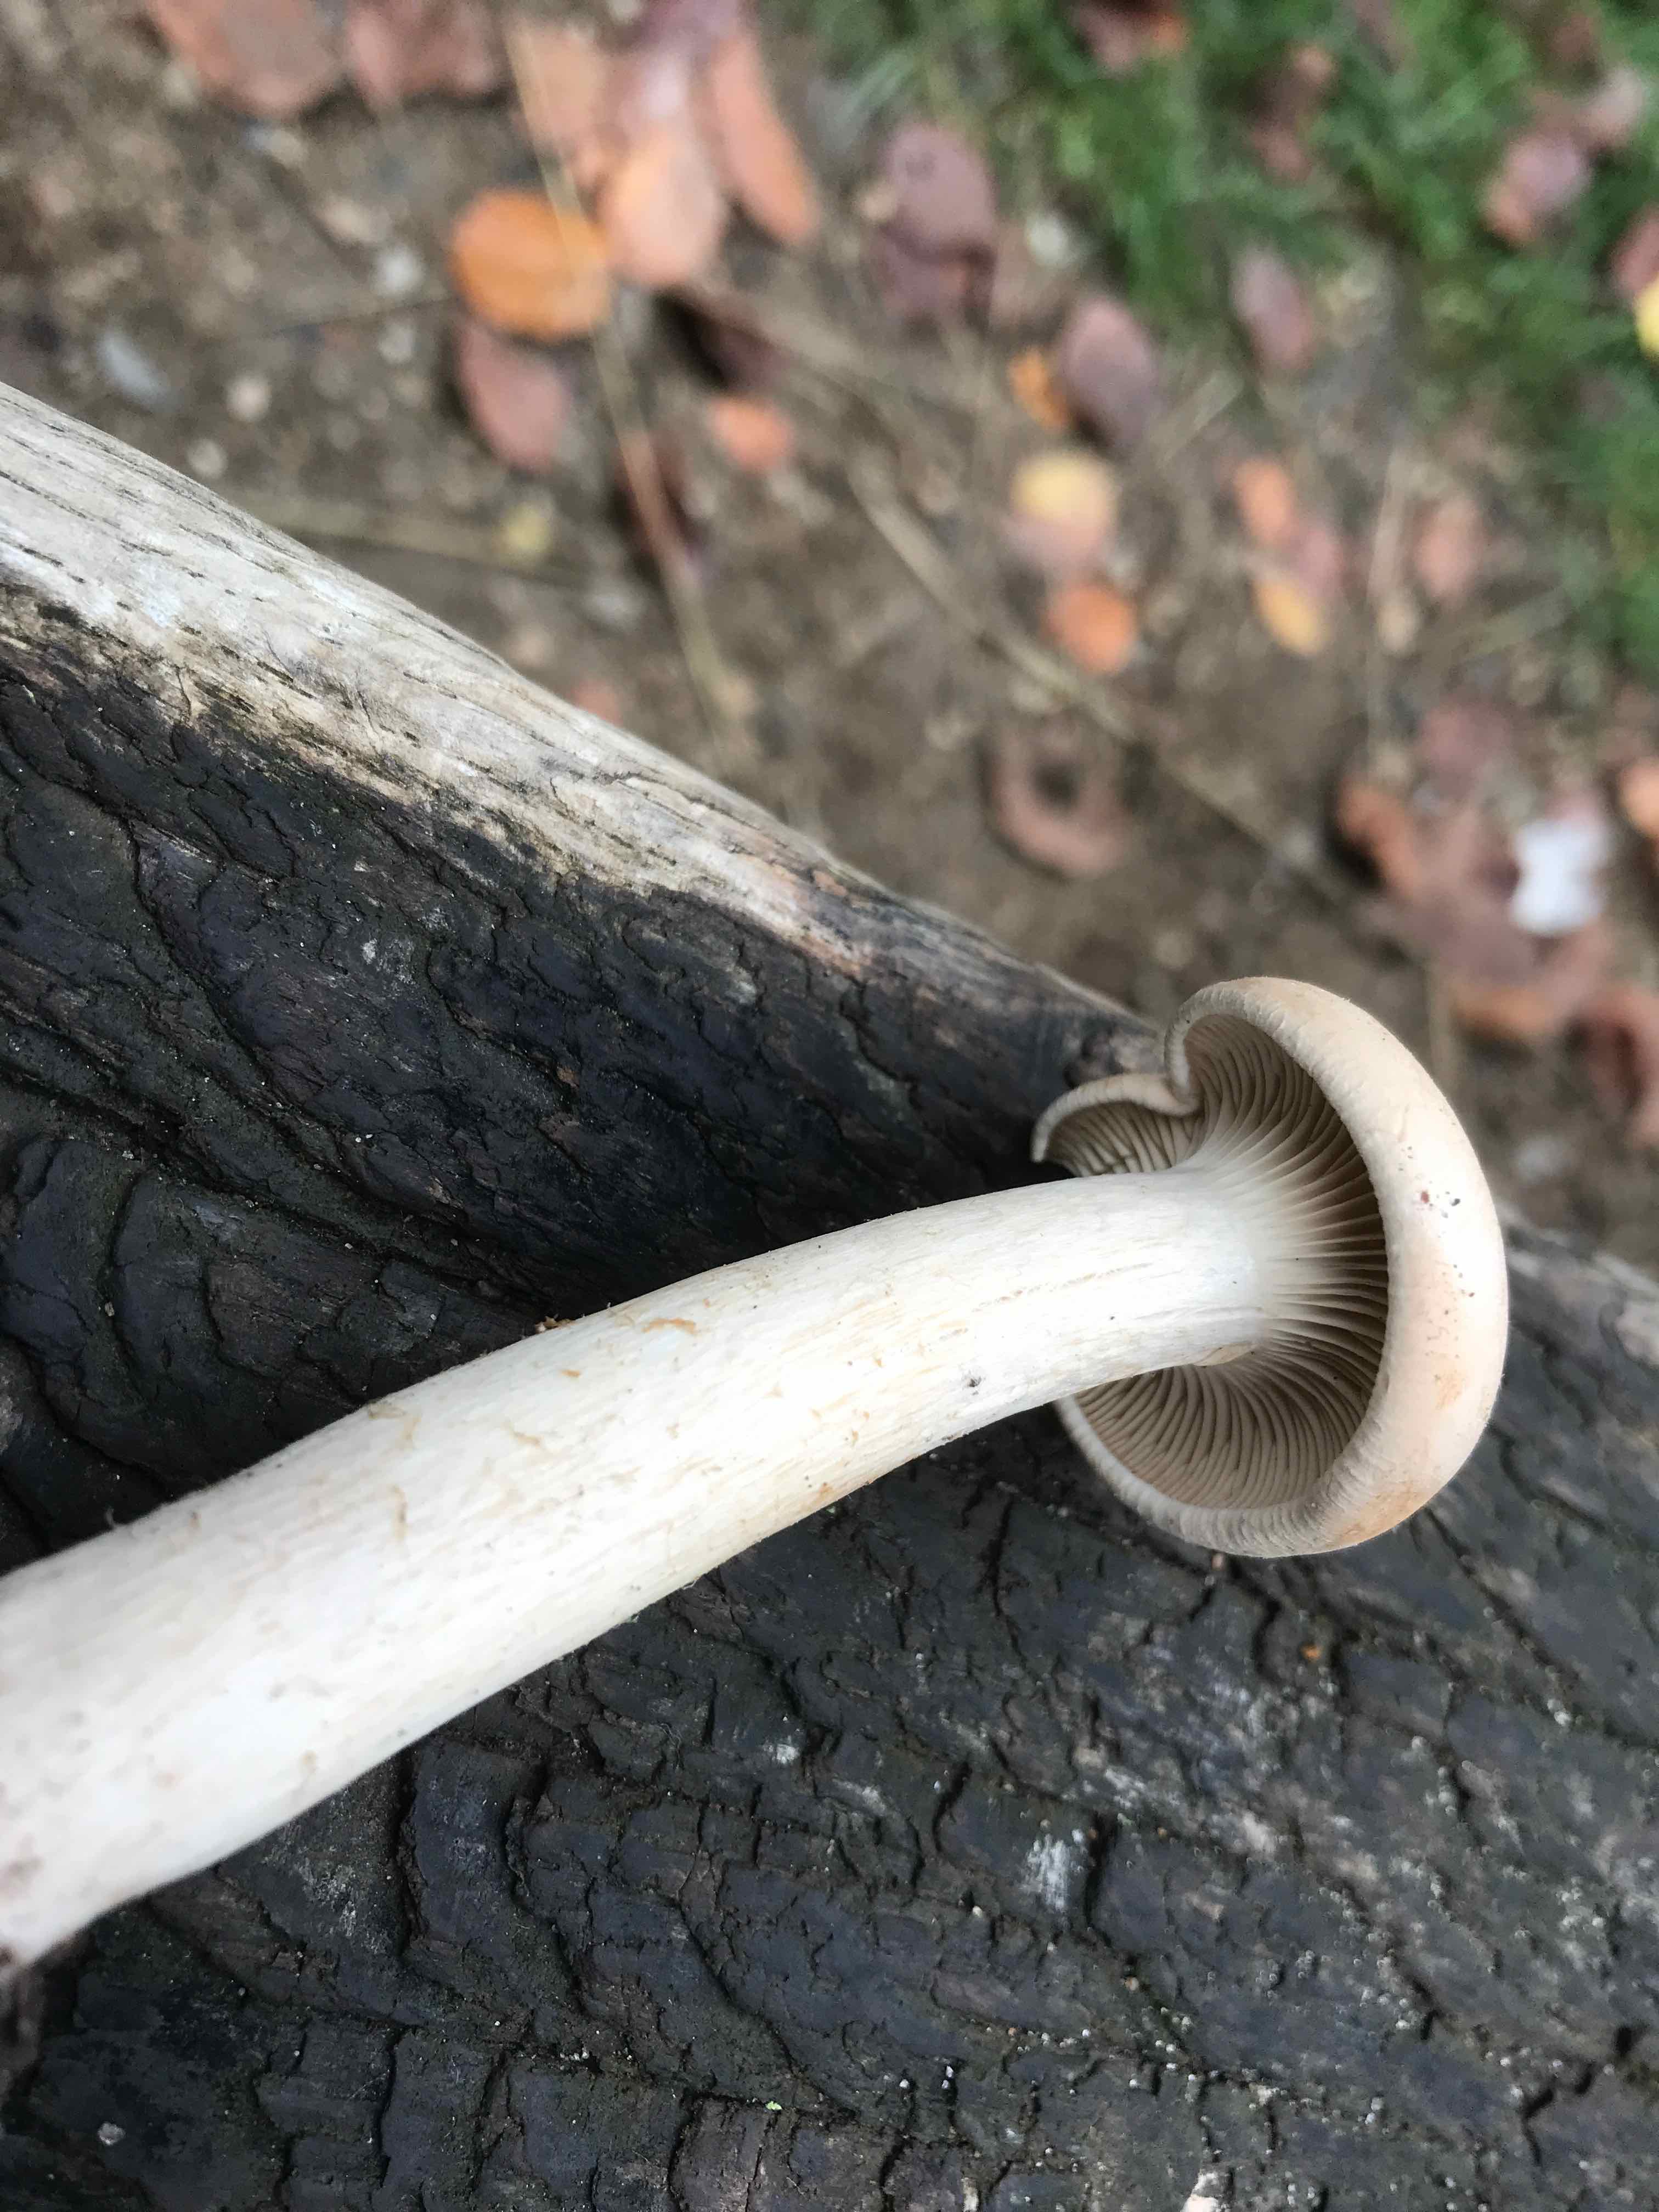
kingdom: Fungi
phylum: Basidiomycota
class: Agaricomycetes
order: Agaricales
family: Tricholomataceae
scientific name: Tricholomataceae
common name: ridderhatfamilien
